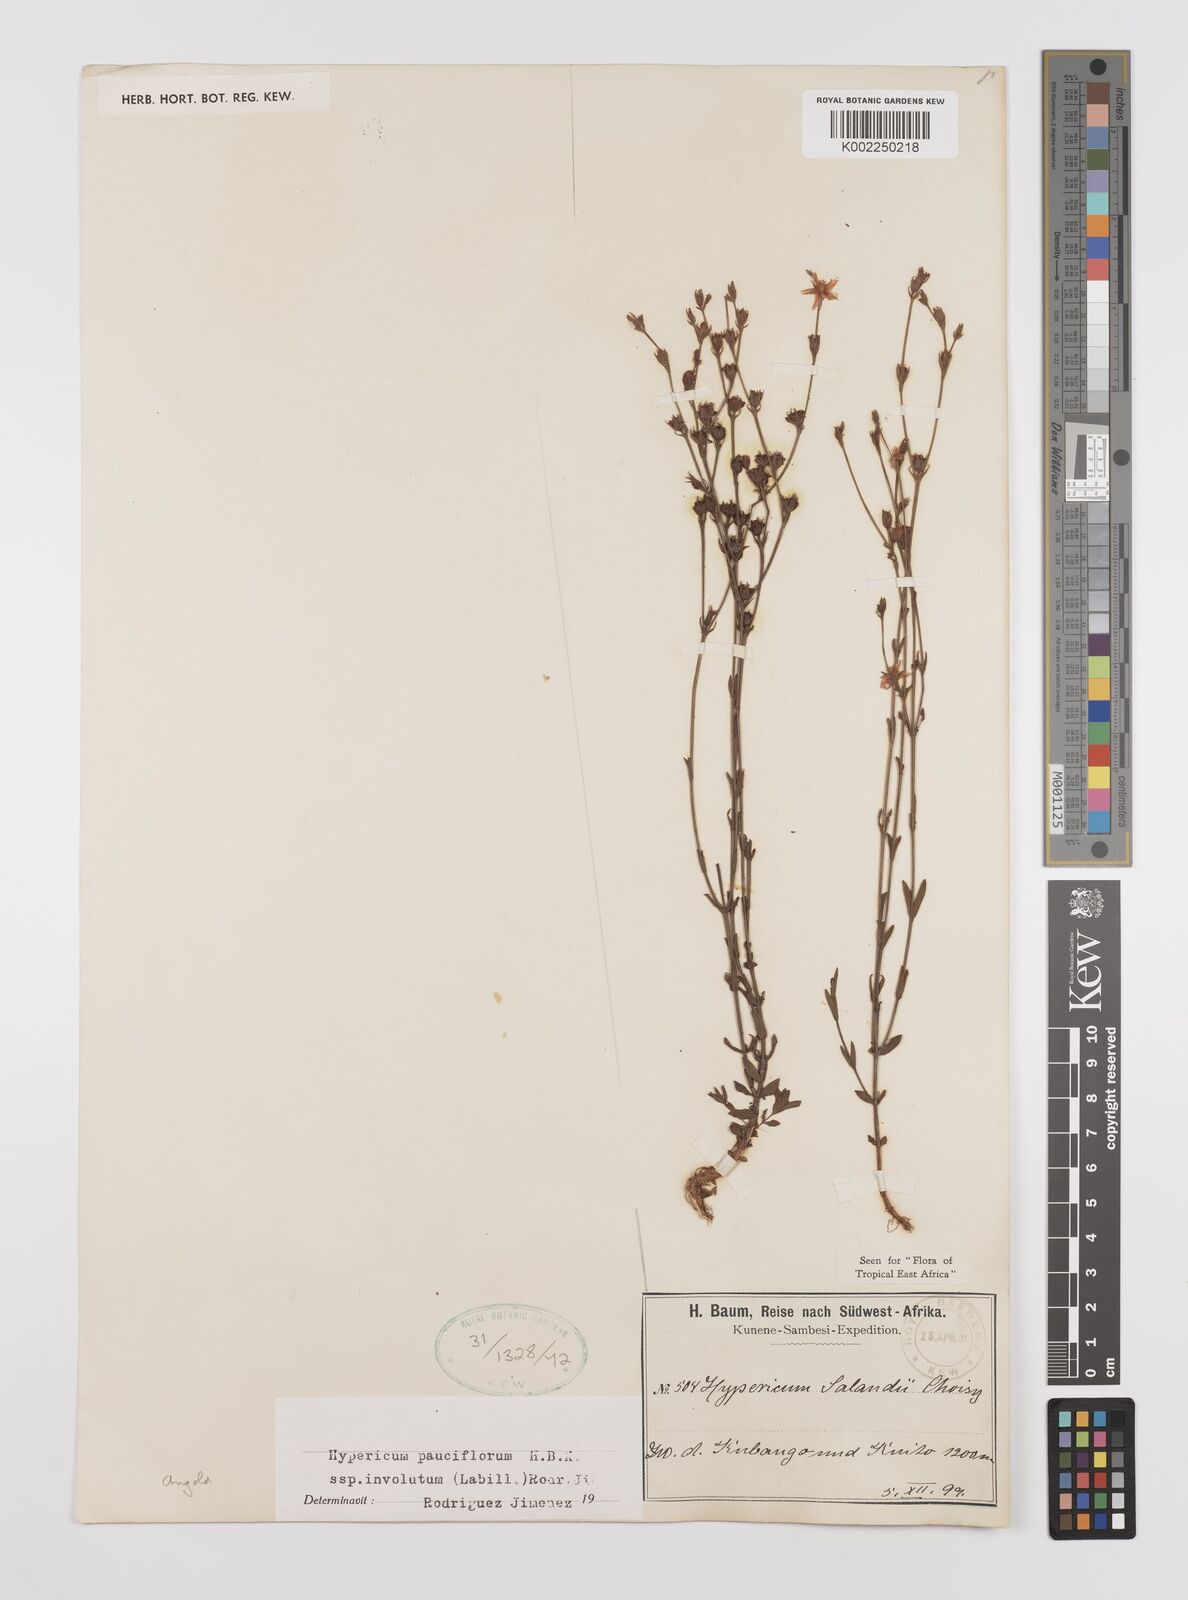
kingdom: Plantae
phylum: Tracheophyta
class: Magnoliopsida
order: Malpighiales
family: Hypericaceae
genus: Hypericum
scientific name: Hypericum lalandii
